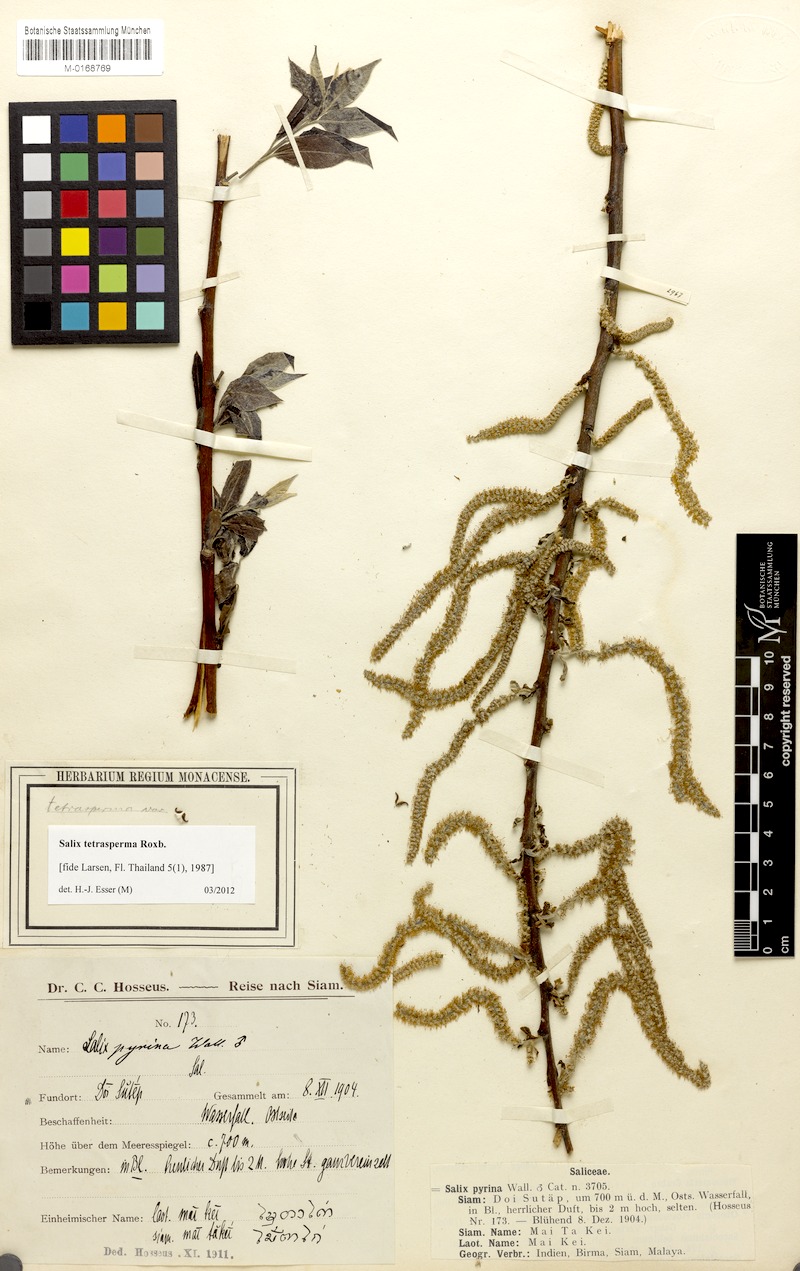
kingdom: Plantae
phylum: Tracheophyta
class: Magnoliopsida
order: Malpighiales
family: Salicaceae
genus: Salix
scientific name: Salix tetrasperma
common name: Indian willow
